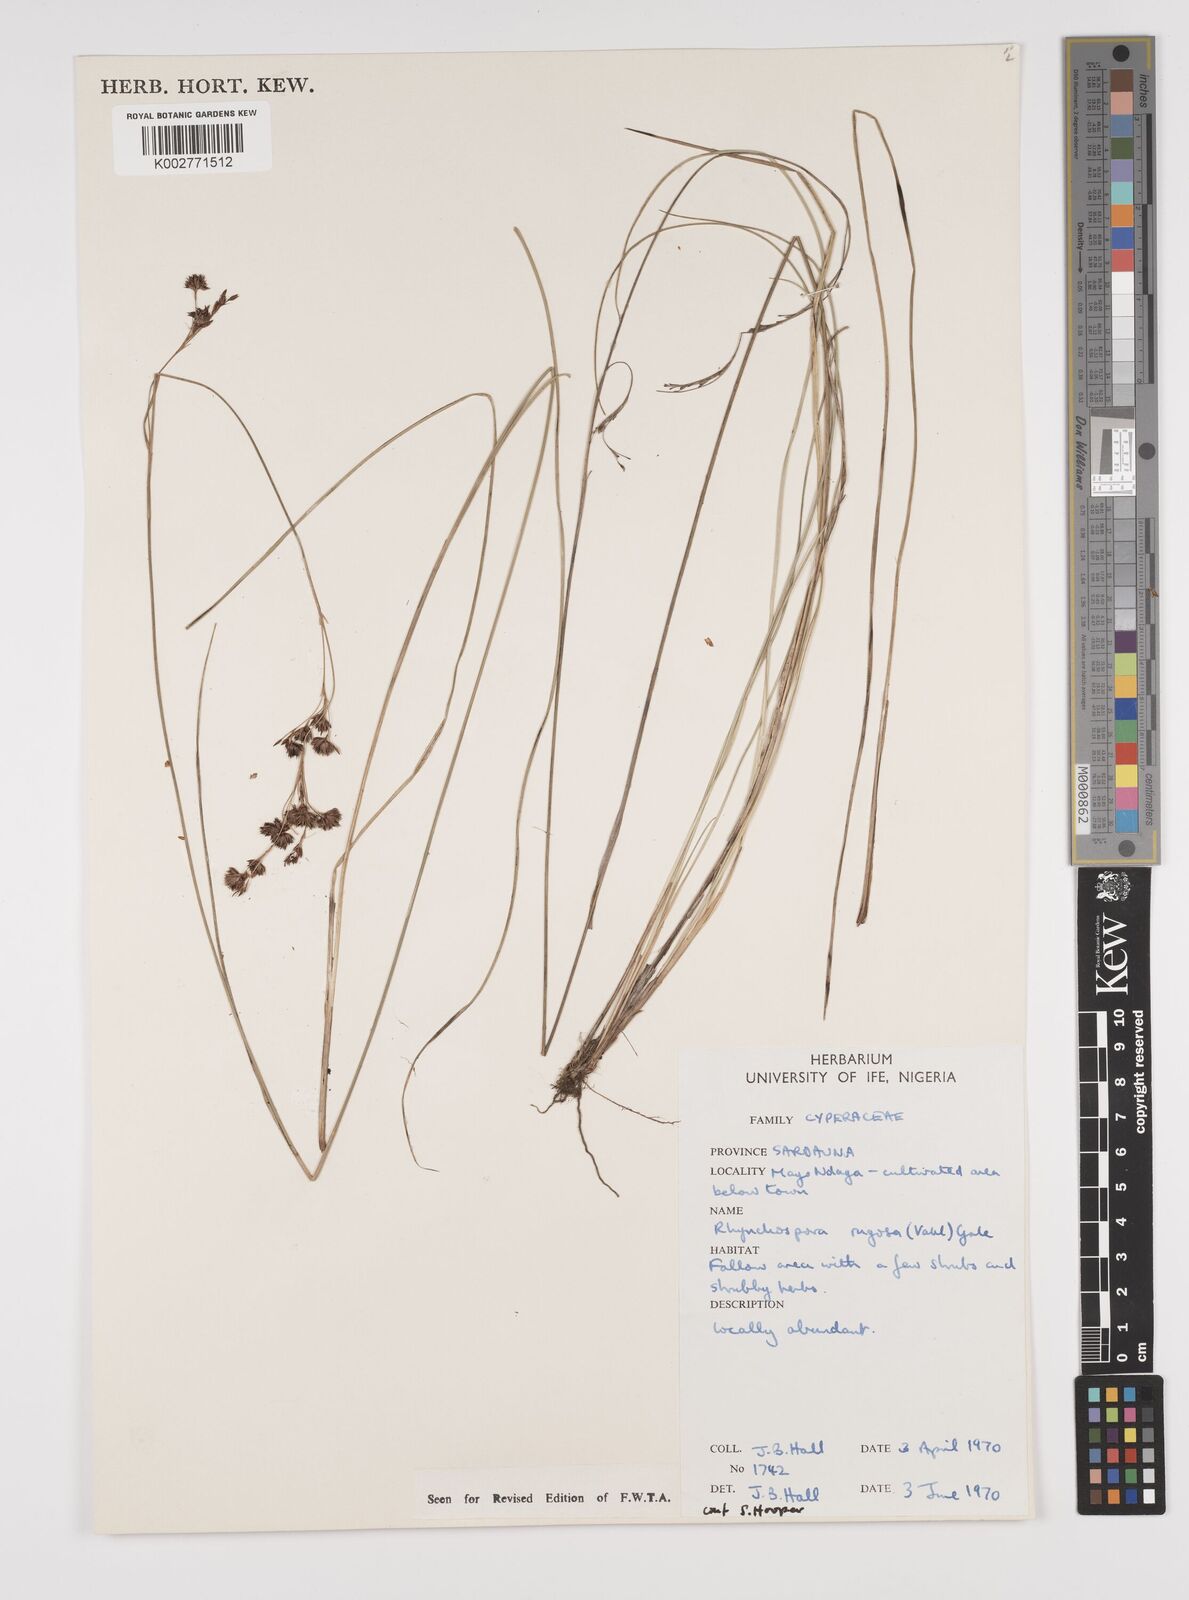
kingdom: Plantae
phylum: Tracheophyta
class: Liliopsida
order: Poales
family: Cyperaceae
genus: Rhynchospora
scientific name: Rhynchospora rugosa
